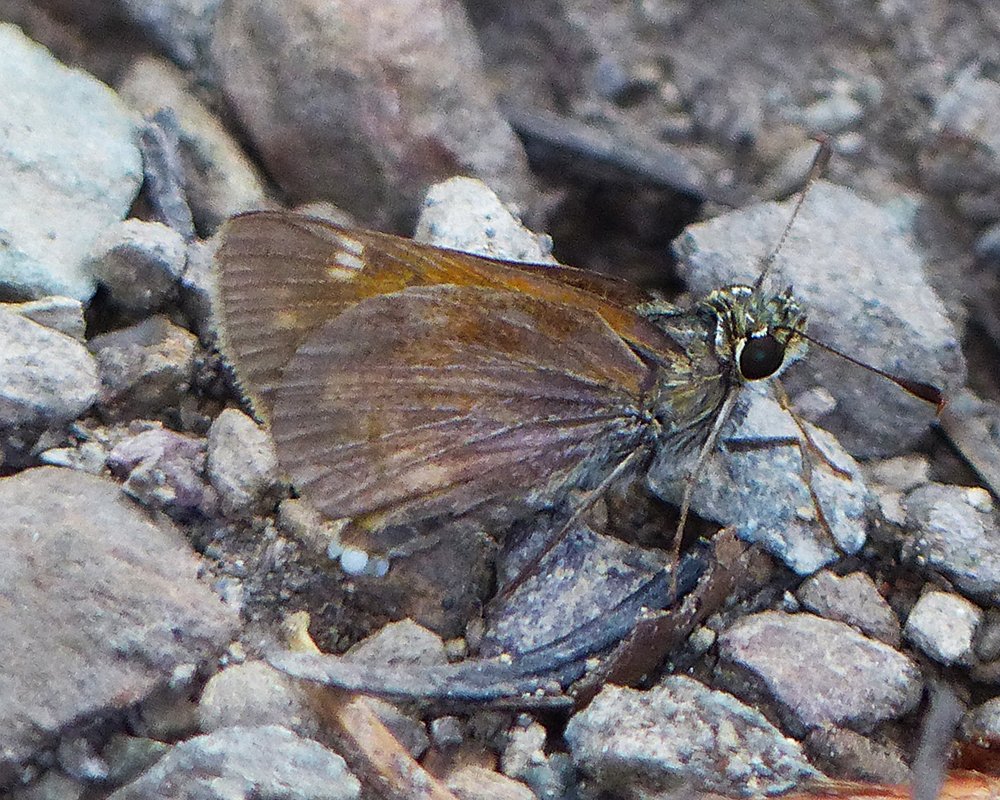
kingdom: Animalia
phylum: Arthropoda
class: Insecta
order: Lepidoptera
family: Hesperiidae
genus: Lon
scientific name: Lon taxiles
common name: Taxiles Skipper
